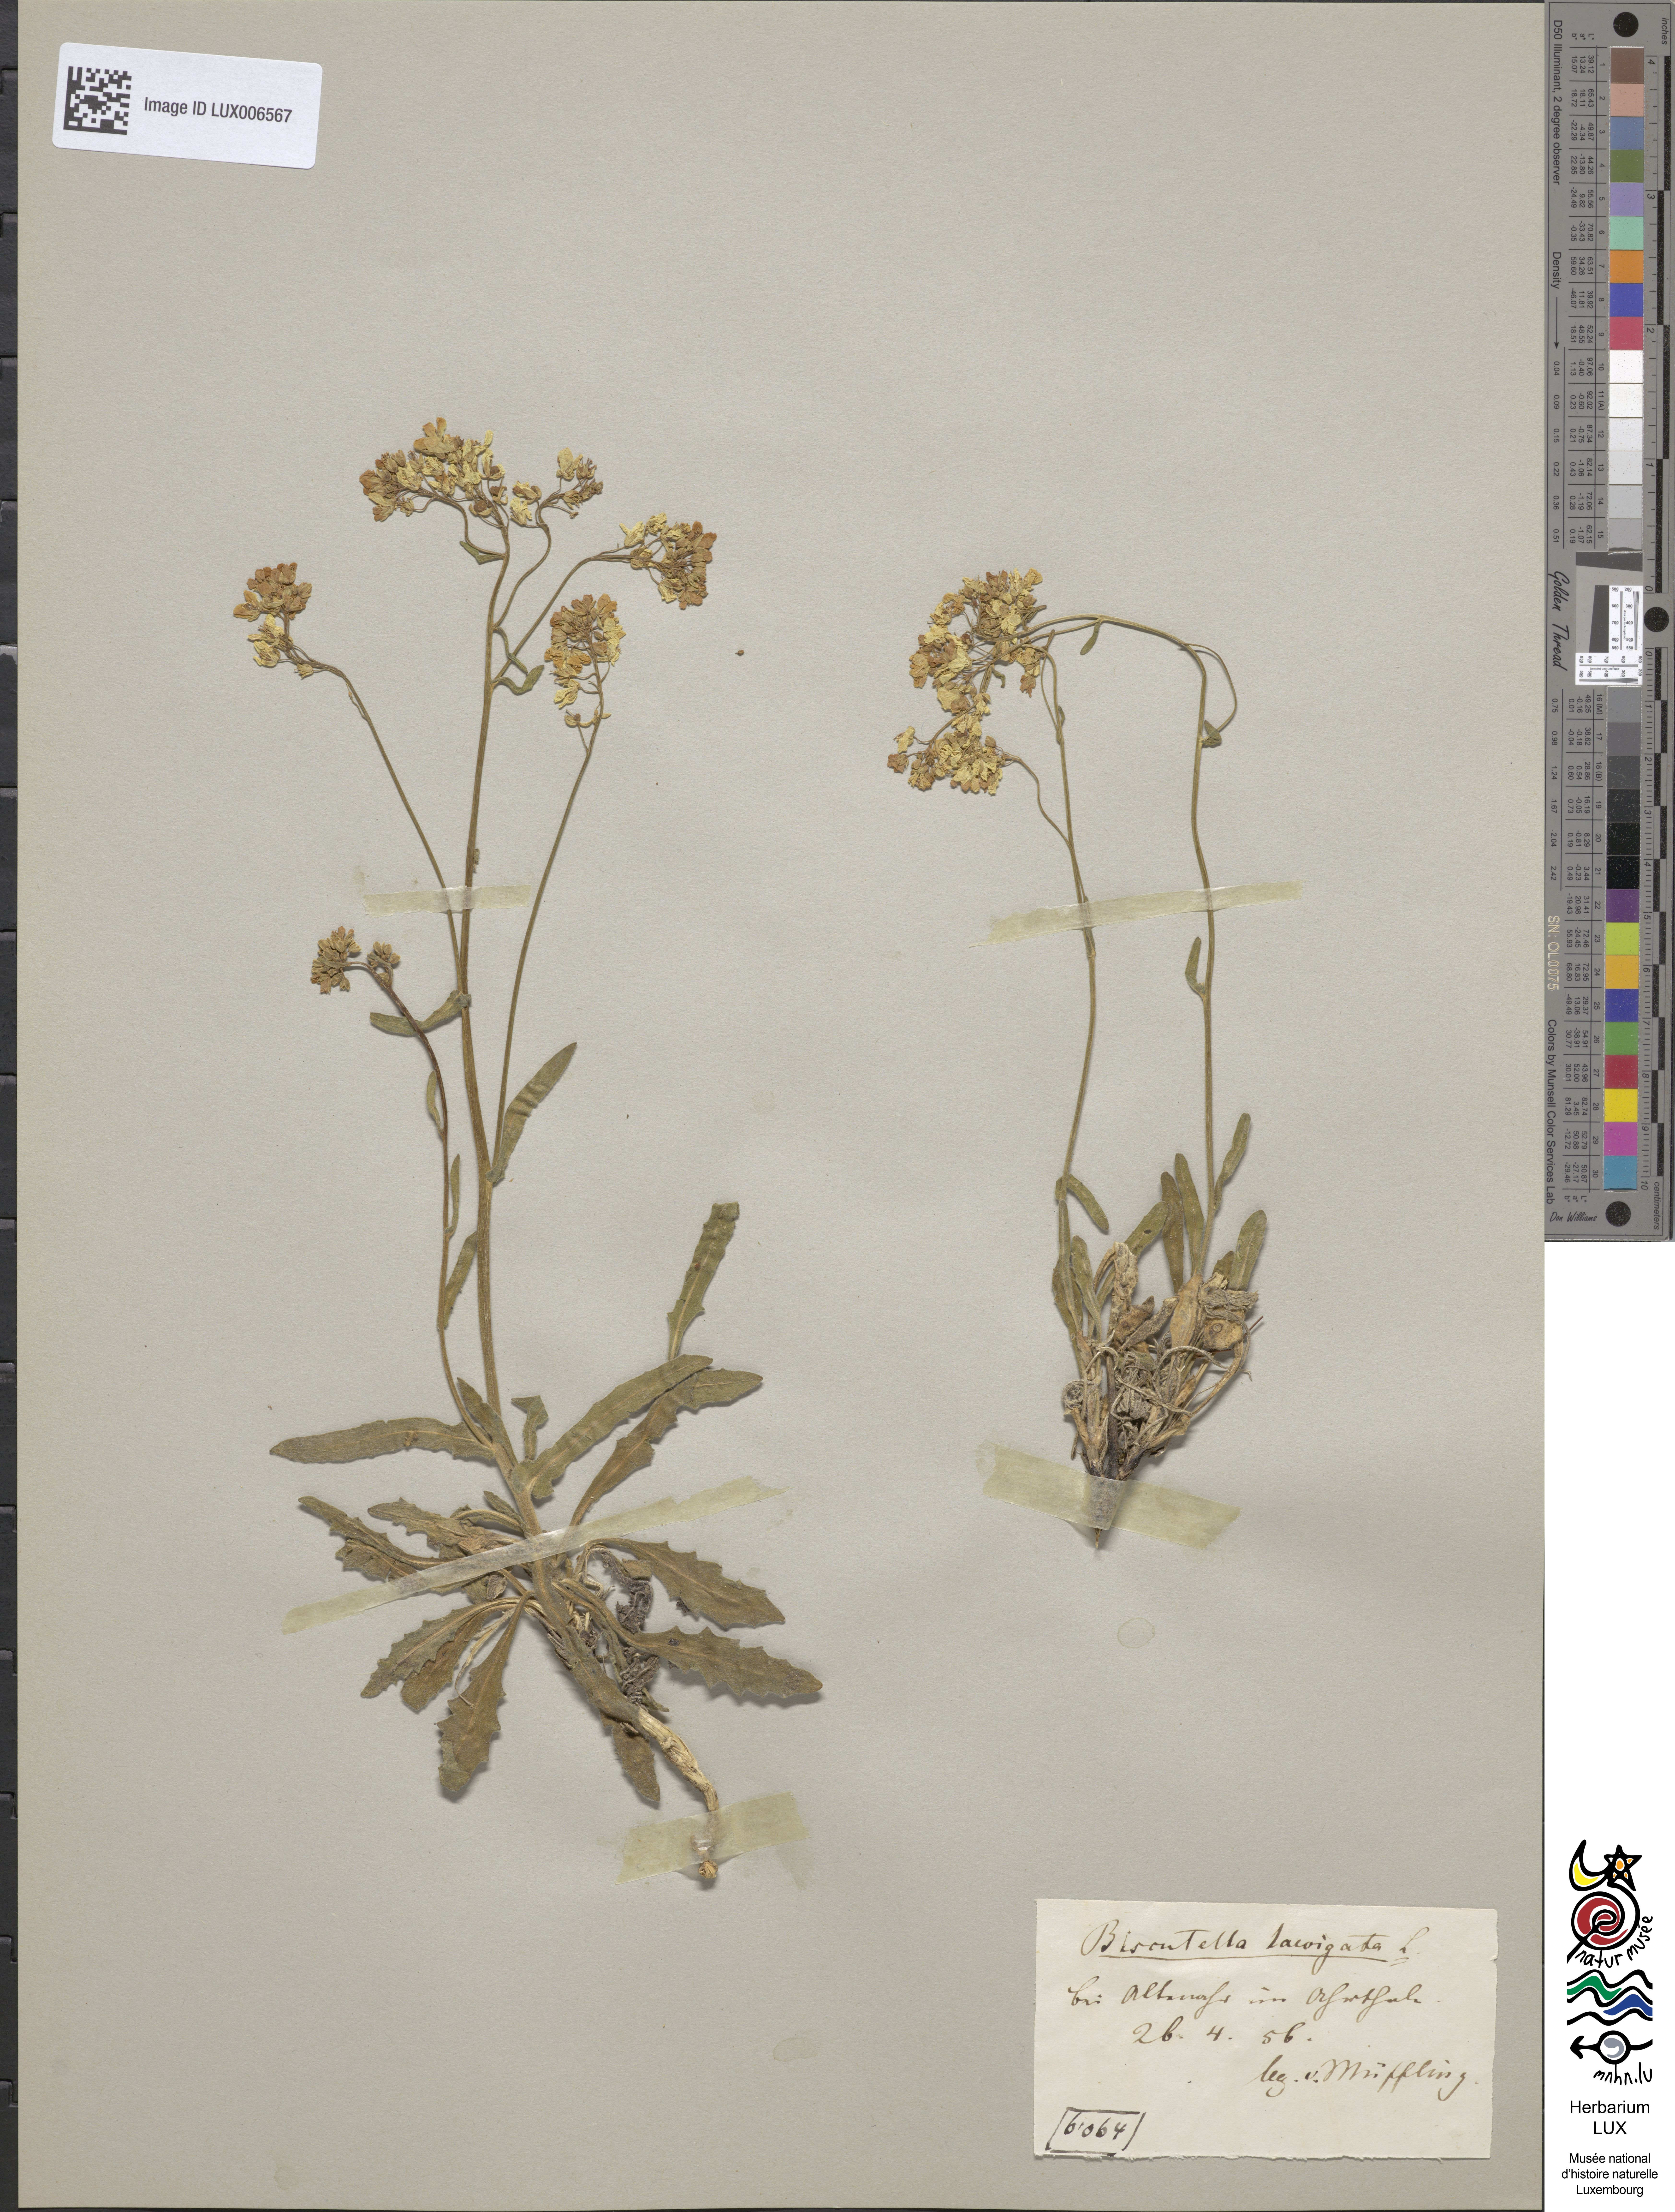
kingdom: Plantae
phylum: Tracheophyta
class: Magnoliopsida
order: Brassicales
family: Brassicaceae
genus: Biscutella
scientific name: Biscutella laevigata
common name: Buckler mustard
